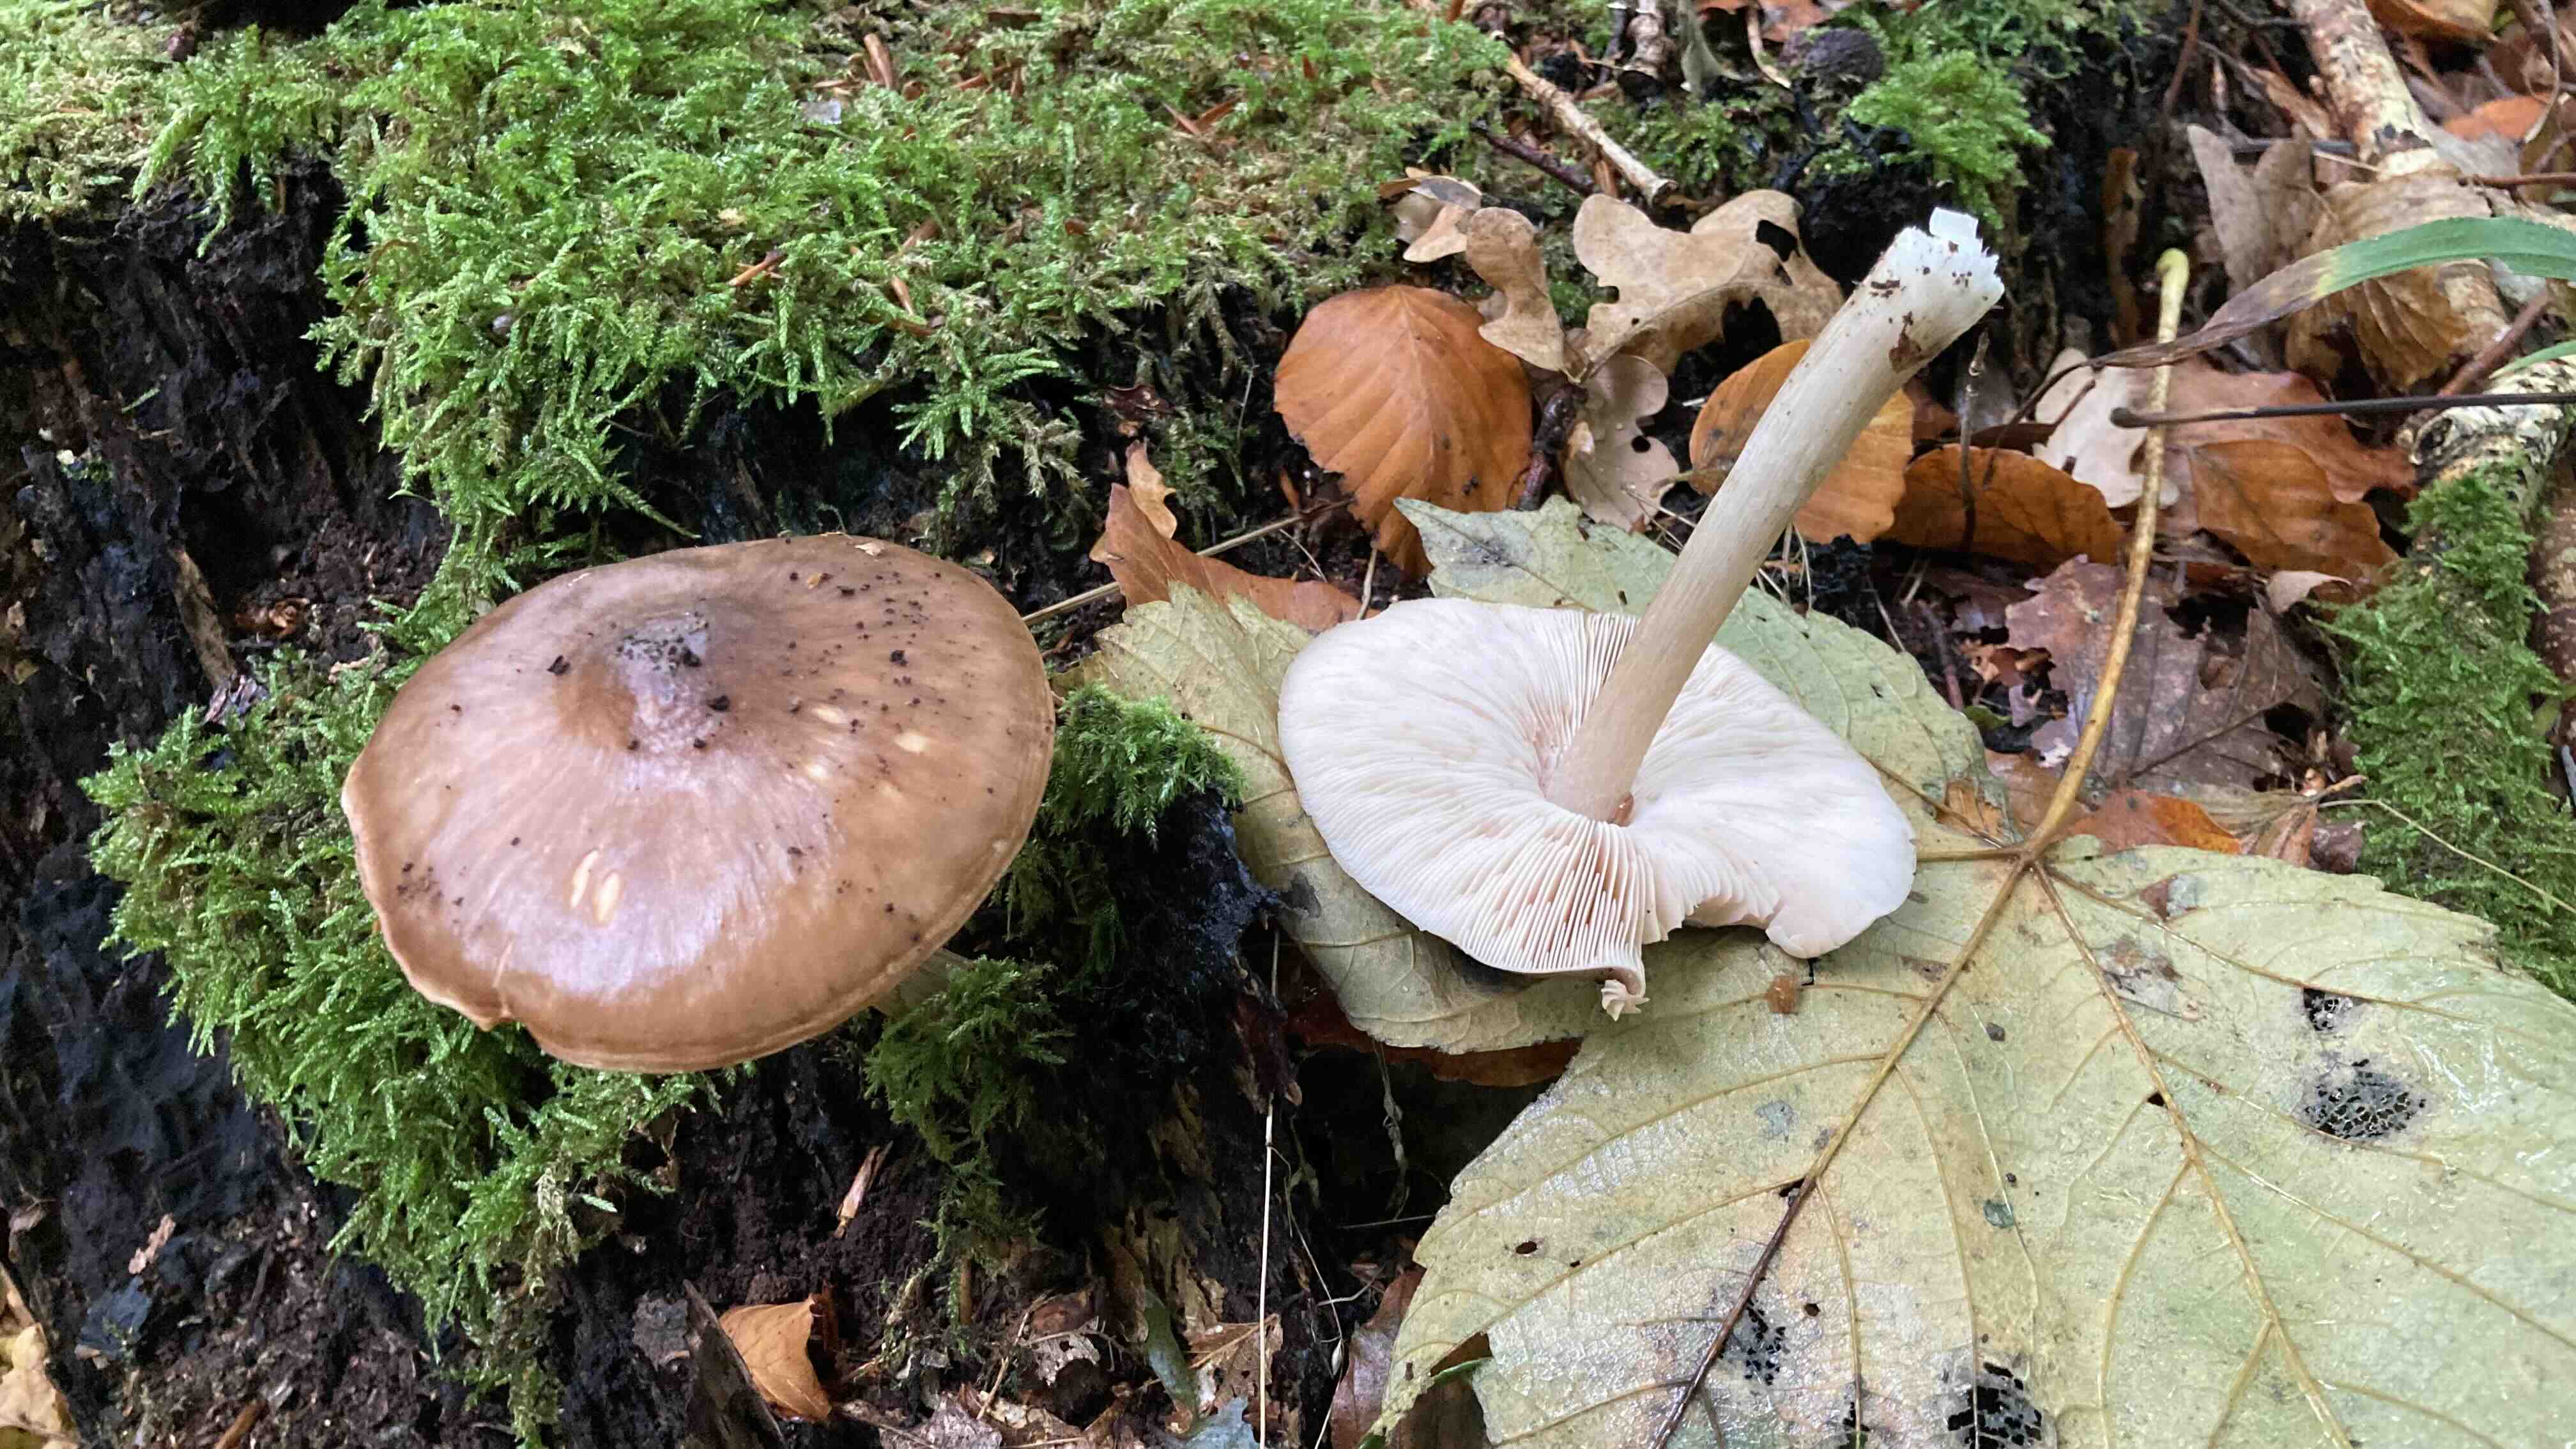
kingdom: Fungi
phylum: Basidiomycota
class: Agaricomycetes
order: Agaricales
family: Pluteaceae
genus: Pluteus
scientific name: Pluteus cervinus
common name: sodfarvet skærmhat
